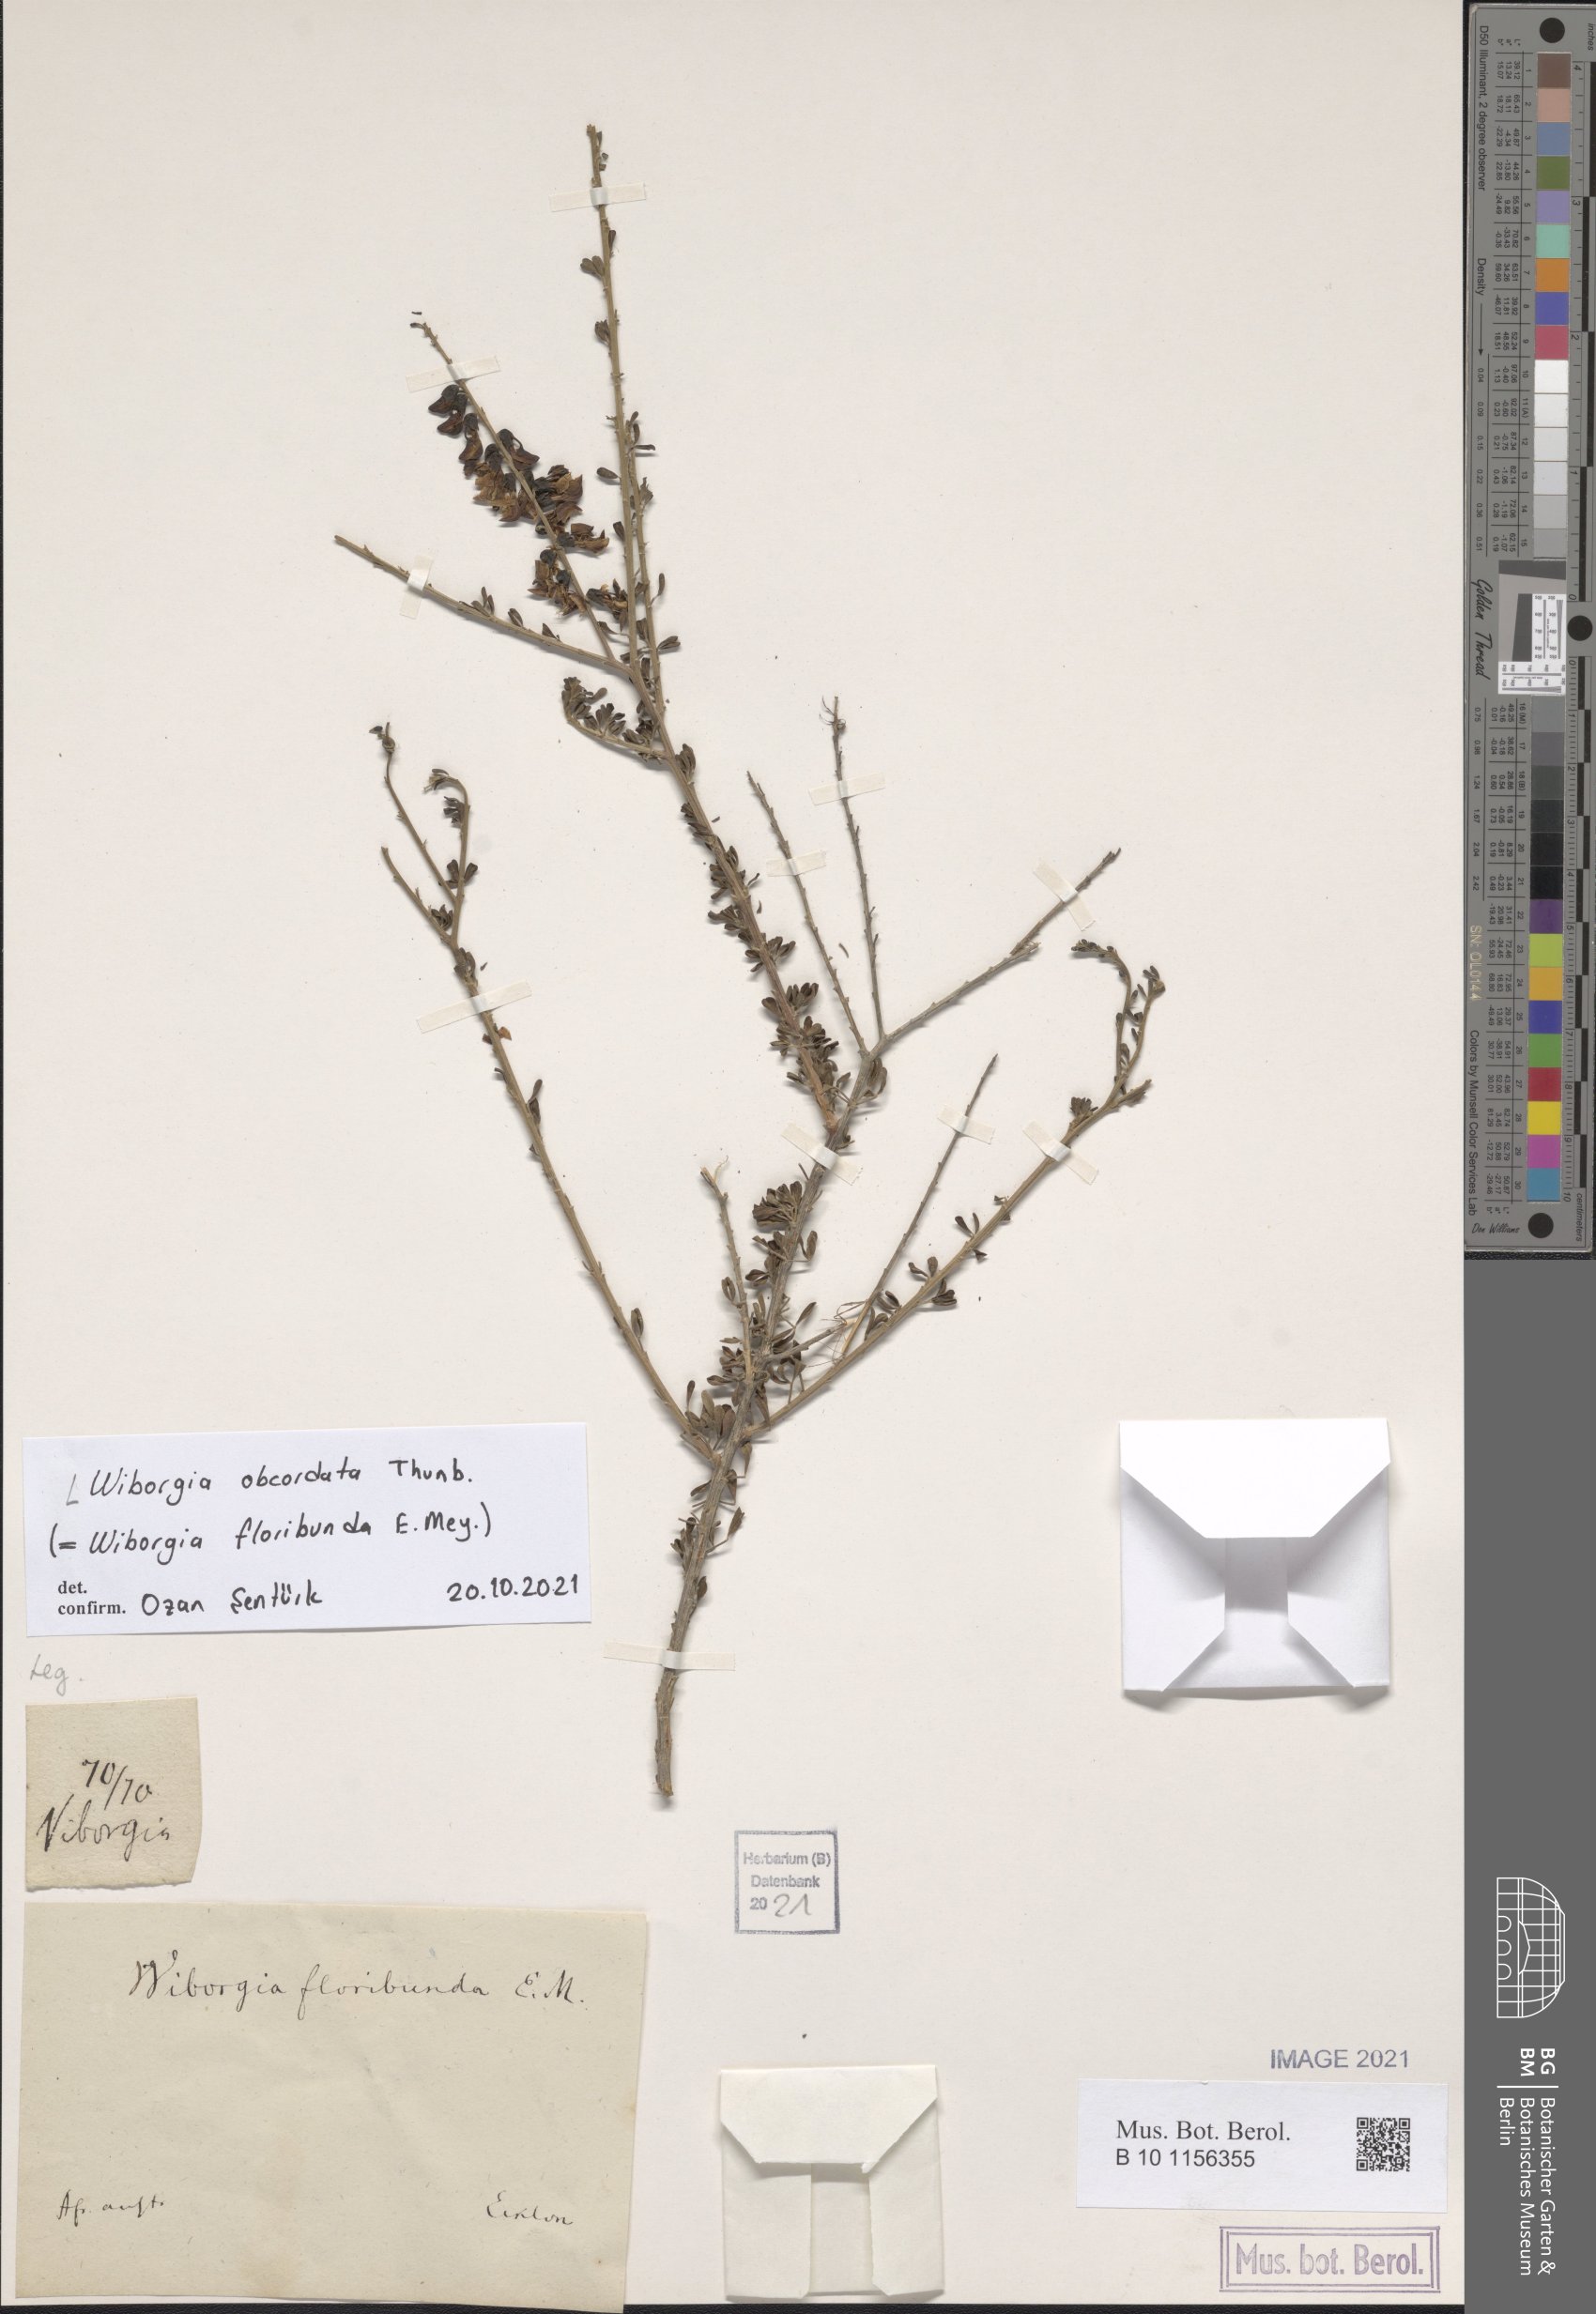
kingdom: Plantae
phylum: Tracheophyta
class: Magnoliopsida
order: Fabales
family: Fabaceae
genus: Wiborgia
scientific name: Wiborgia obcordata
